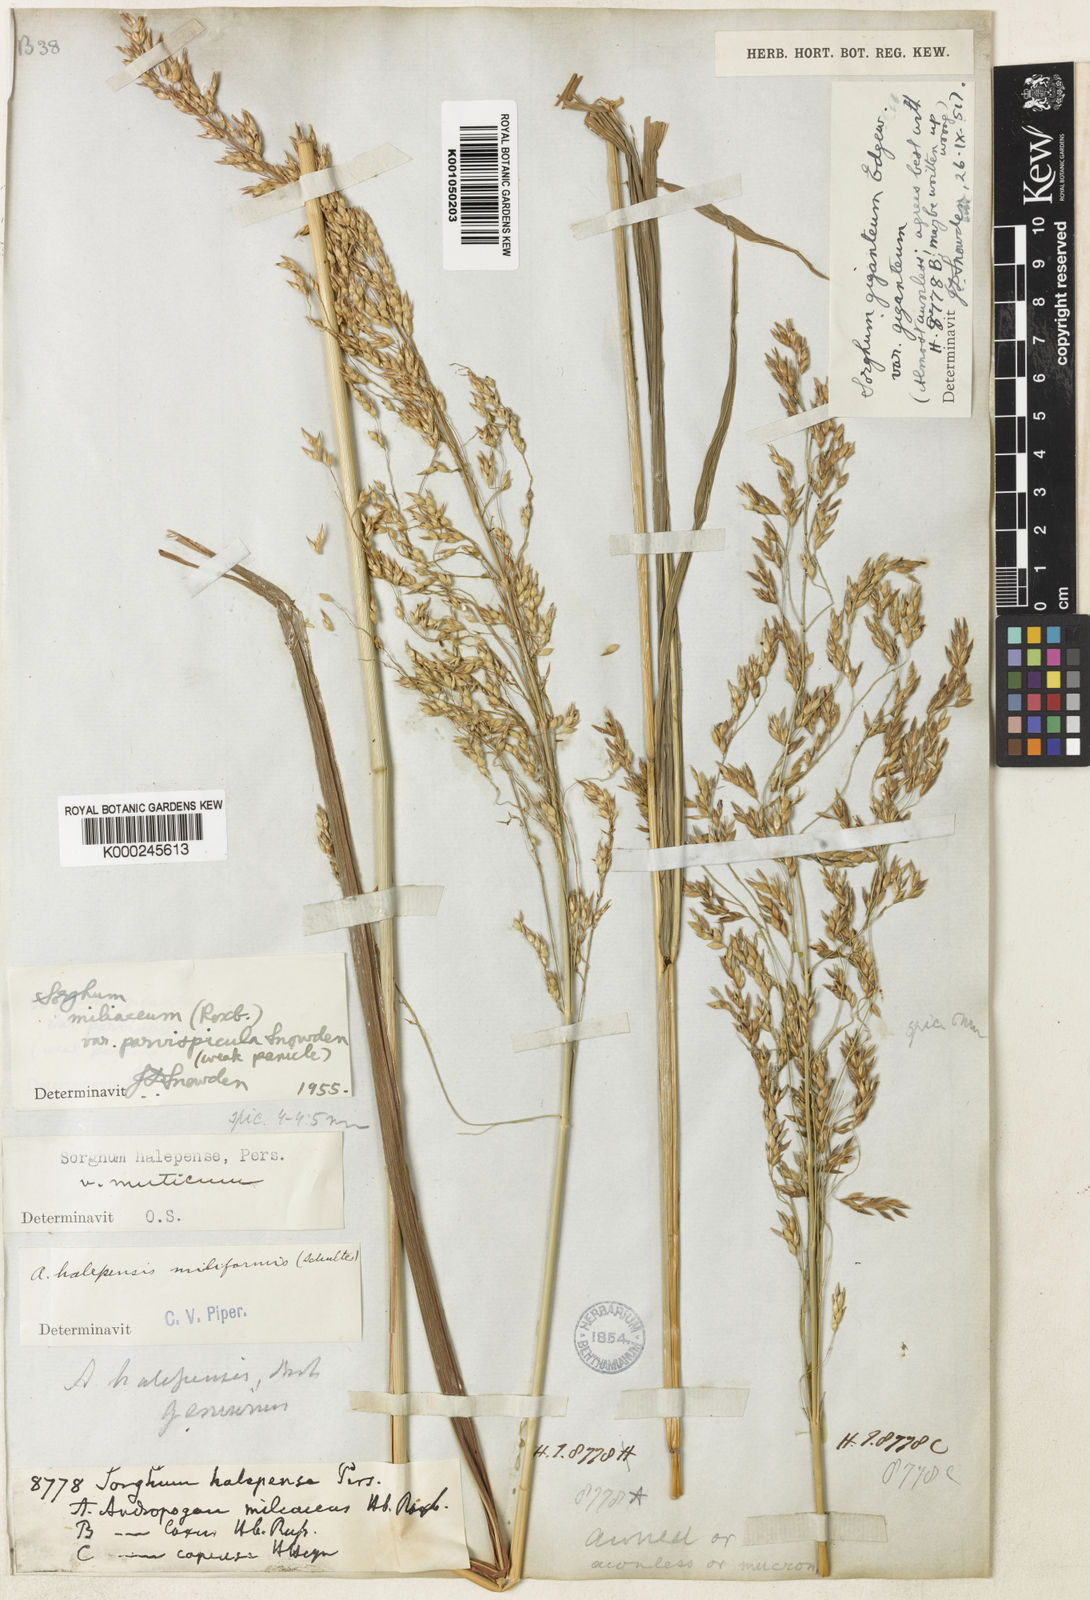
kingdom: Plantae
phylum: Tracheophyta
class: Liliopsida
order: Poales
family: Poaceae
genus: Sorghum
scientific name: Sorghum halepense
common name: Johnson-grass
